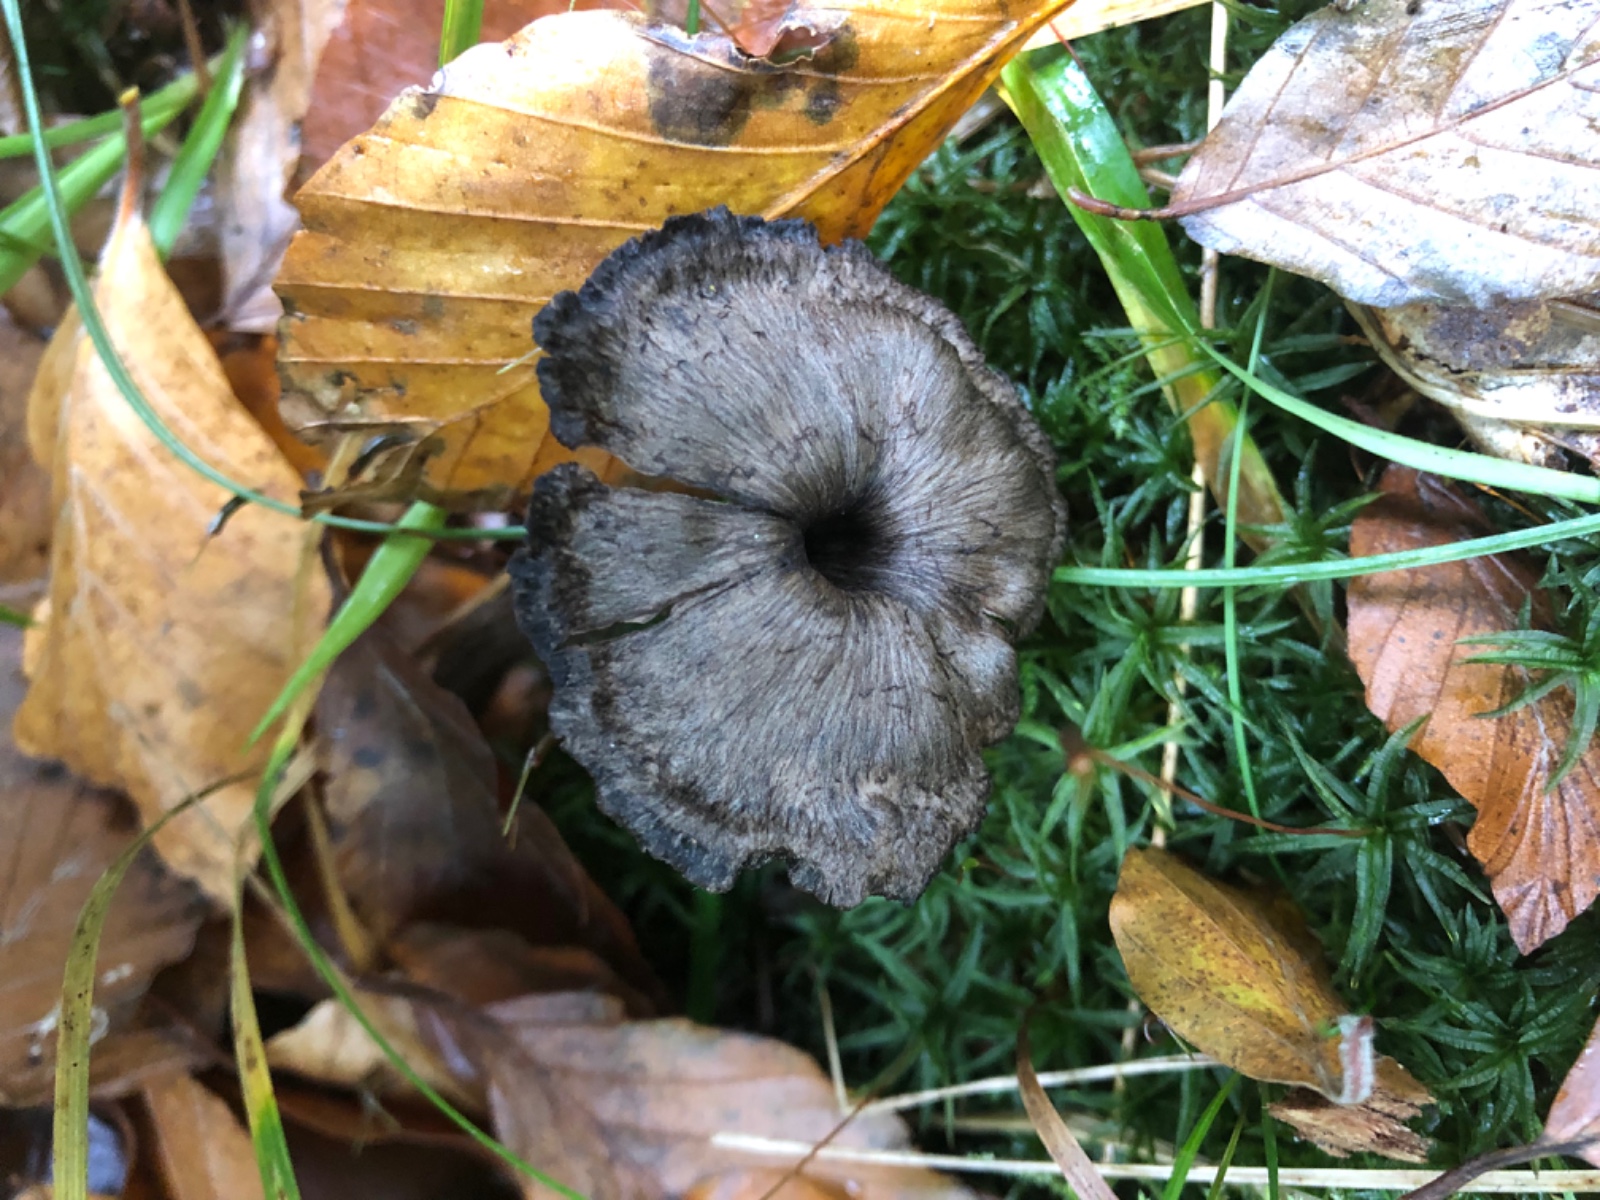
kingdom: Fungi
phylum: Basidiomycota
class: Agaricomycetes
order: Cantharellales
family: Hydnaceae
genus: Cantharellus
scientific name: Cantharellus cinereus
